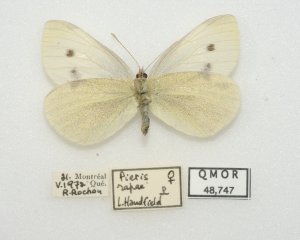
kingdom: Animalia
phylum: Arthropoda
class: Insecta
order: Lepidoptera
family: Pieridae
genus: Pieris
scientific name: Pieris rapae
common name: Cabbage White
